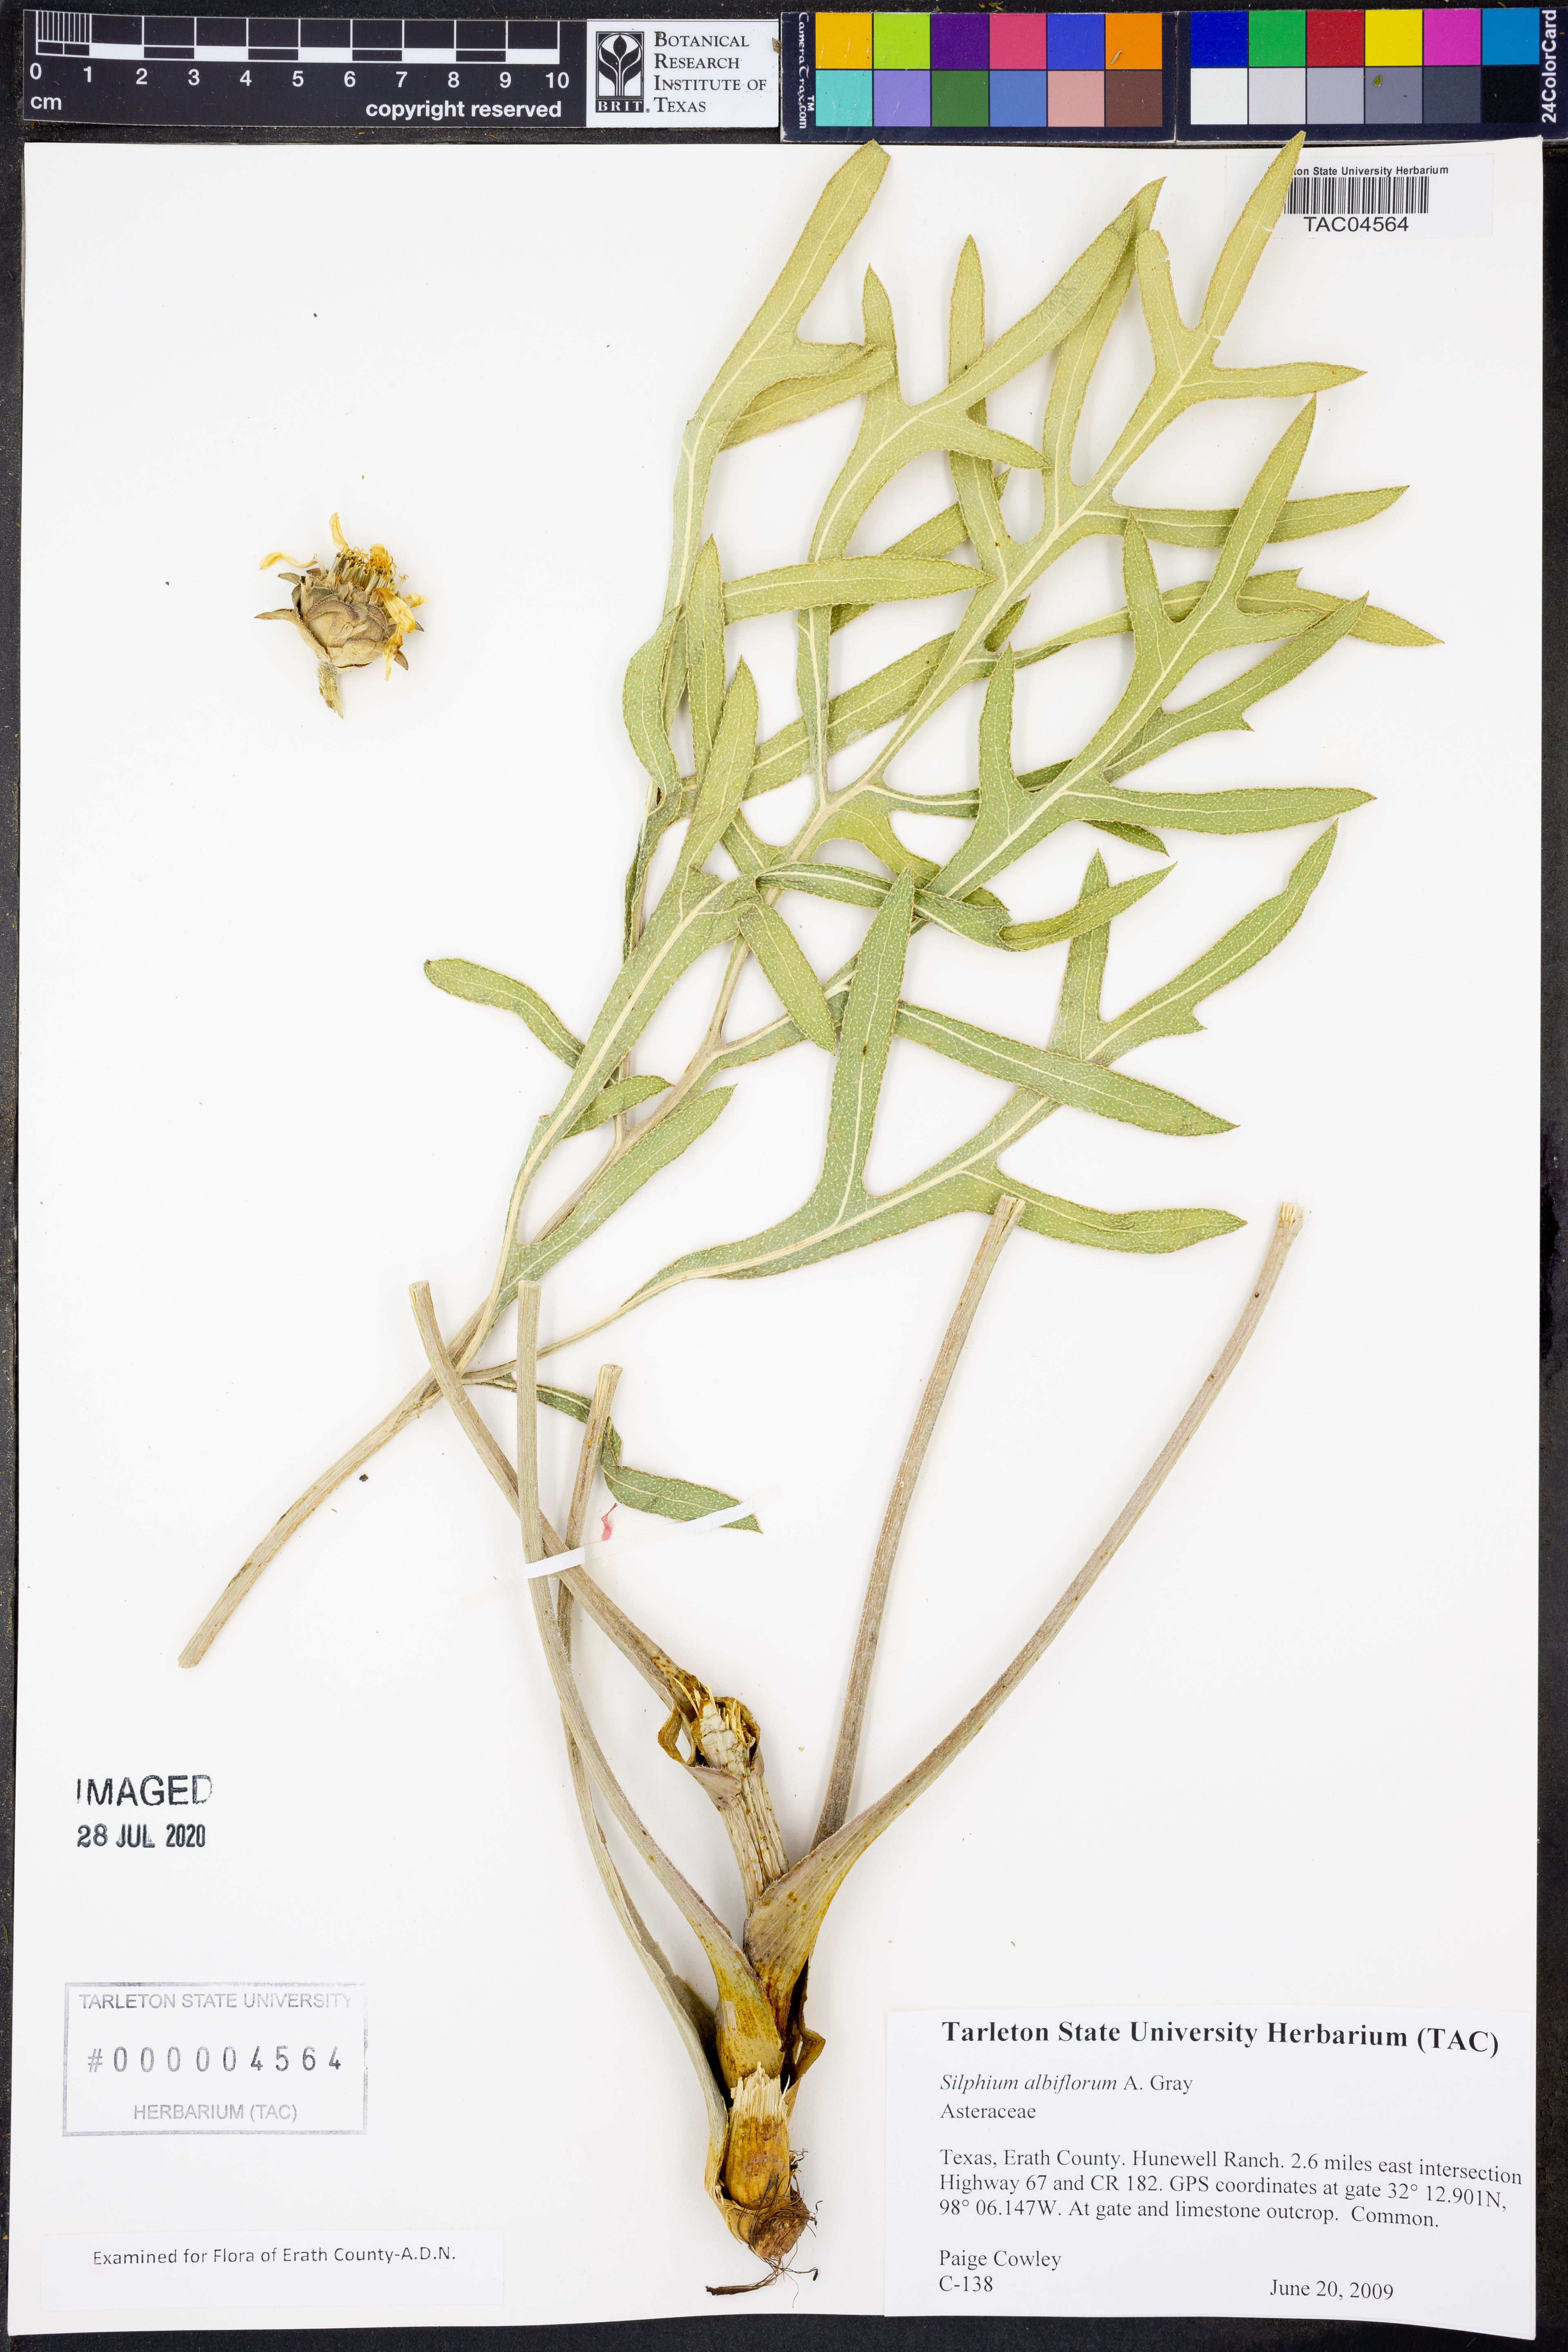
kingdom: Plantae
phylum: Tracheophyta
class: Magnoliopsida
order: Asterales
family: Asteraceae
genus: Silphium
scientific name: Silphium albiflorum
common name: White rosinweed
